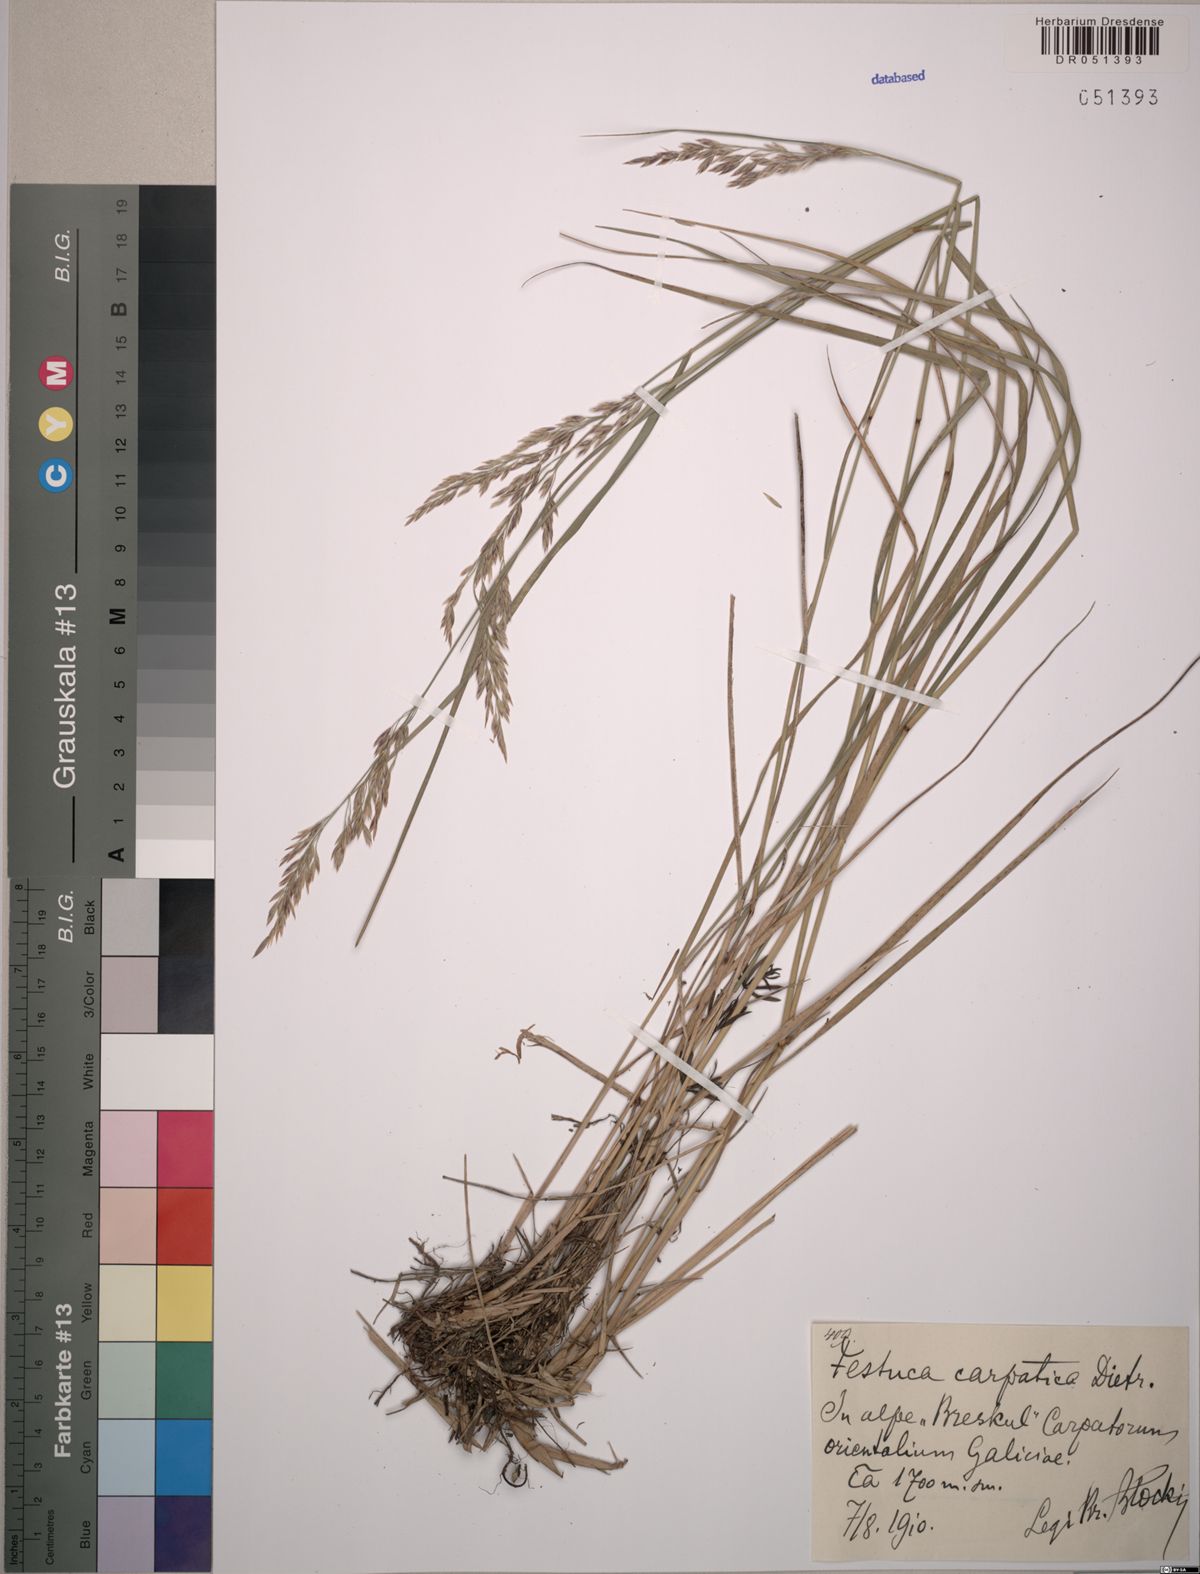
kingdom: Plantae
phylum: Tracheophyta
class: Liliopsida
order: Poales
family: Poaceae
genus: Festuca
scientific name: Festuca carpatica
